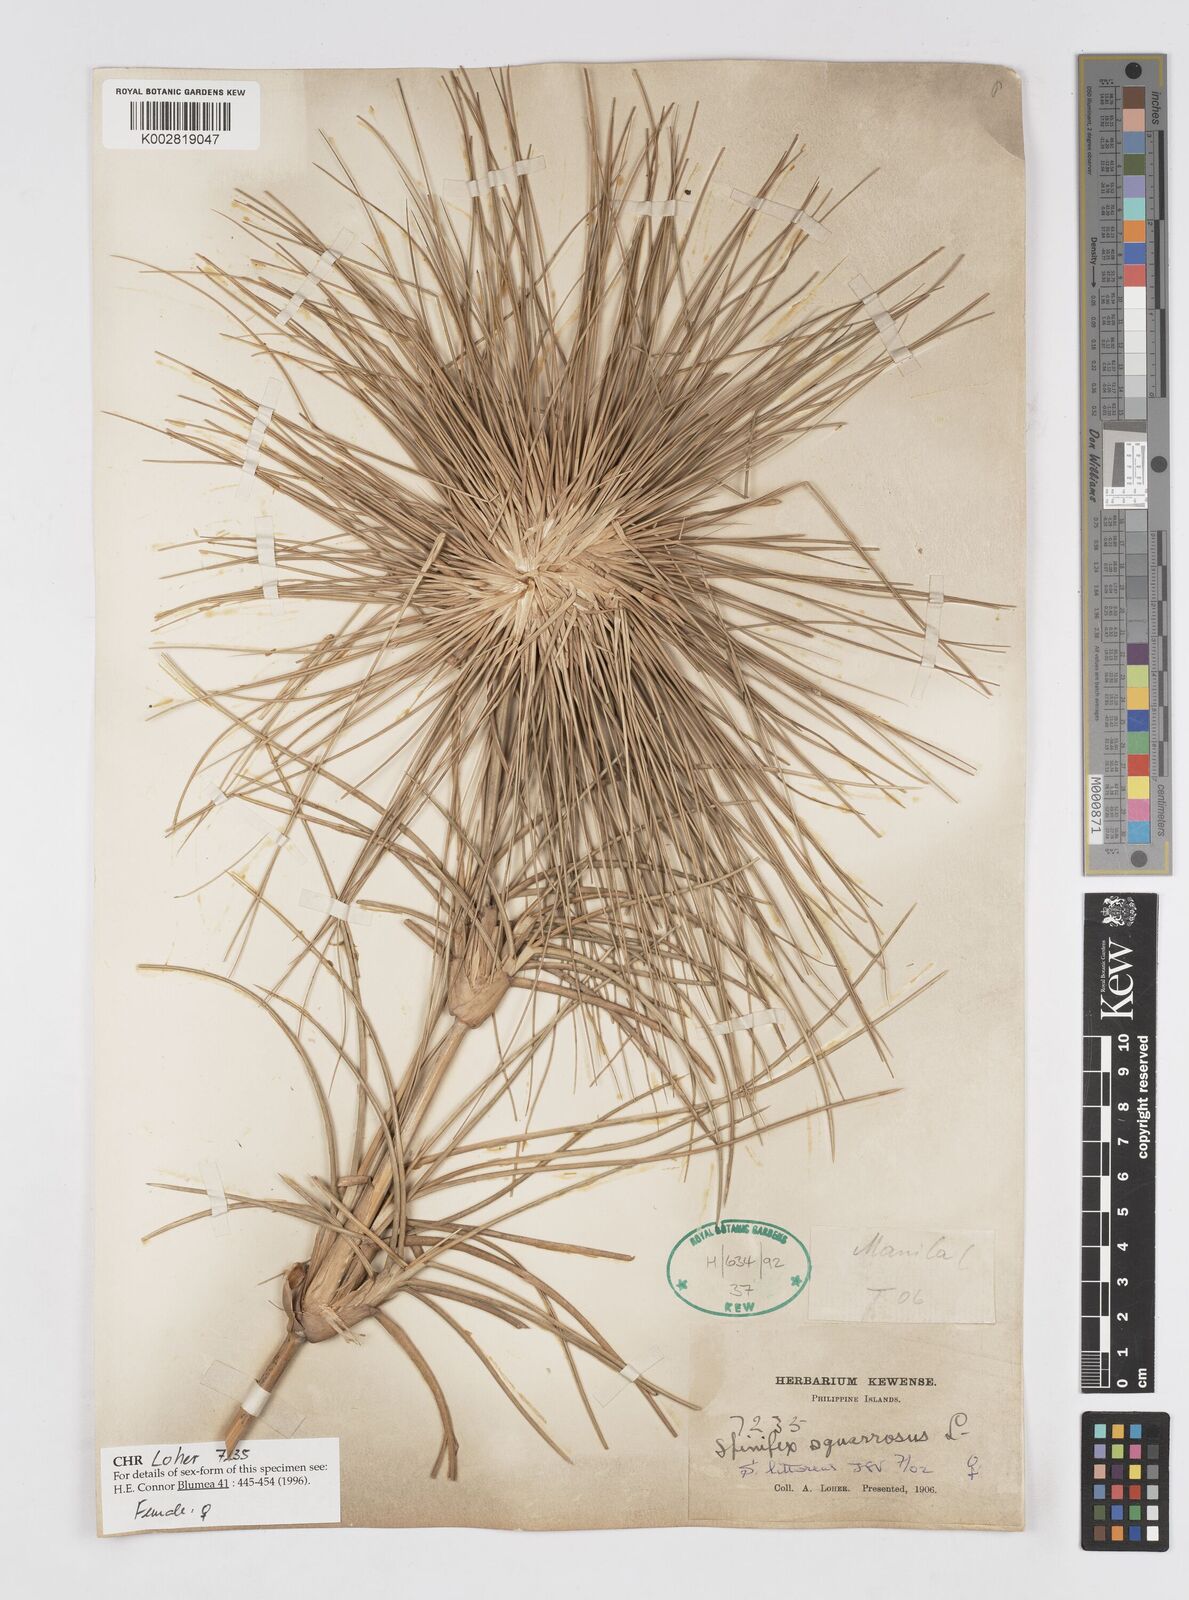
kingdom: Plantae
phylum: Tracheophyta
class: Liliopsida
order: Poales
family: Poaceae
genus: Spinifex
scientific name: Spinifex littoreus
